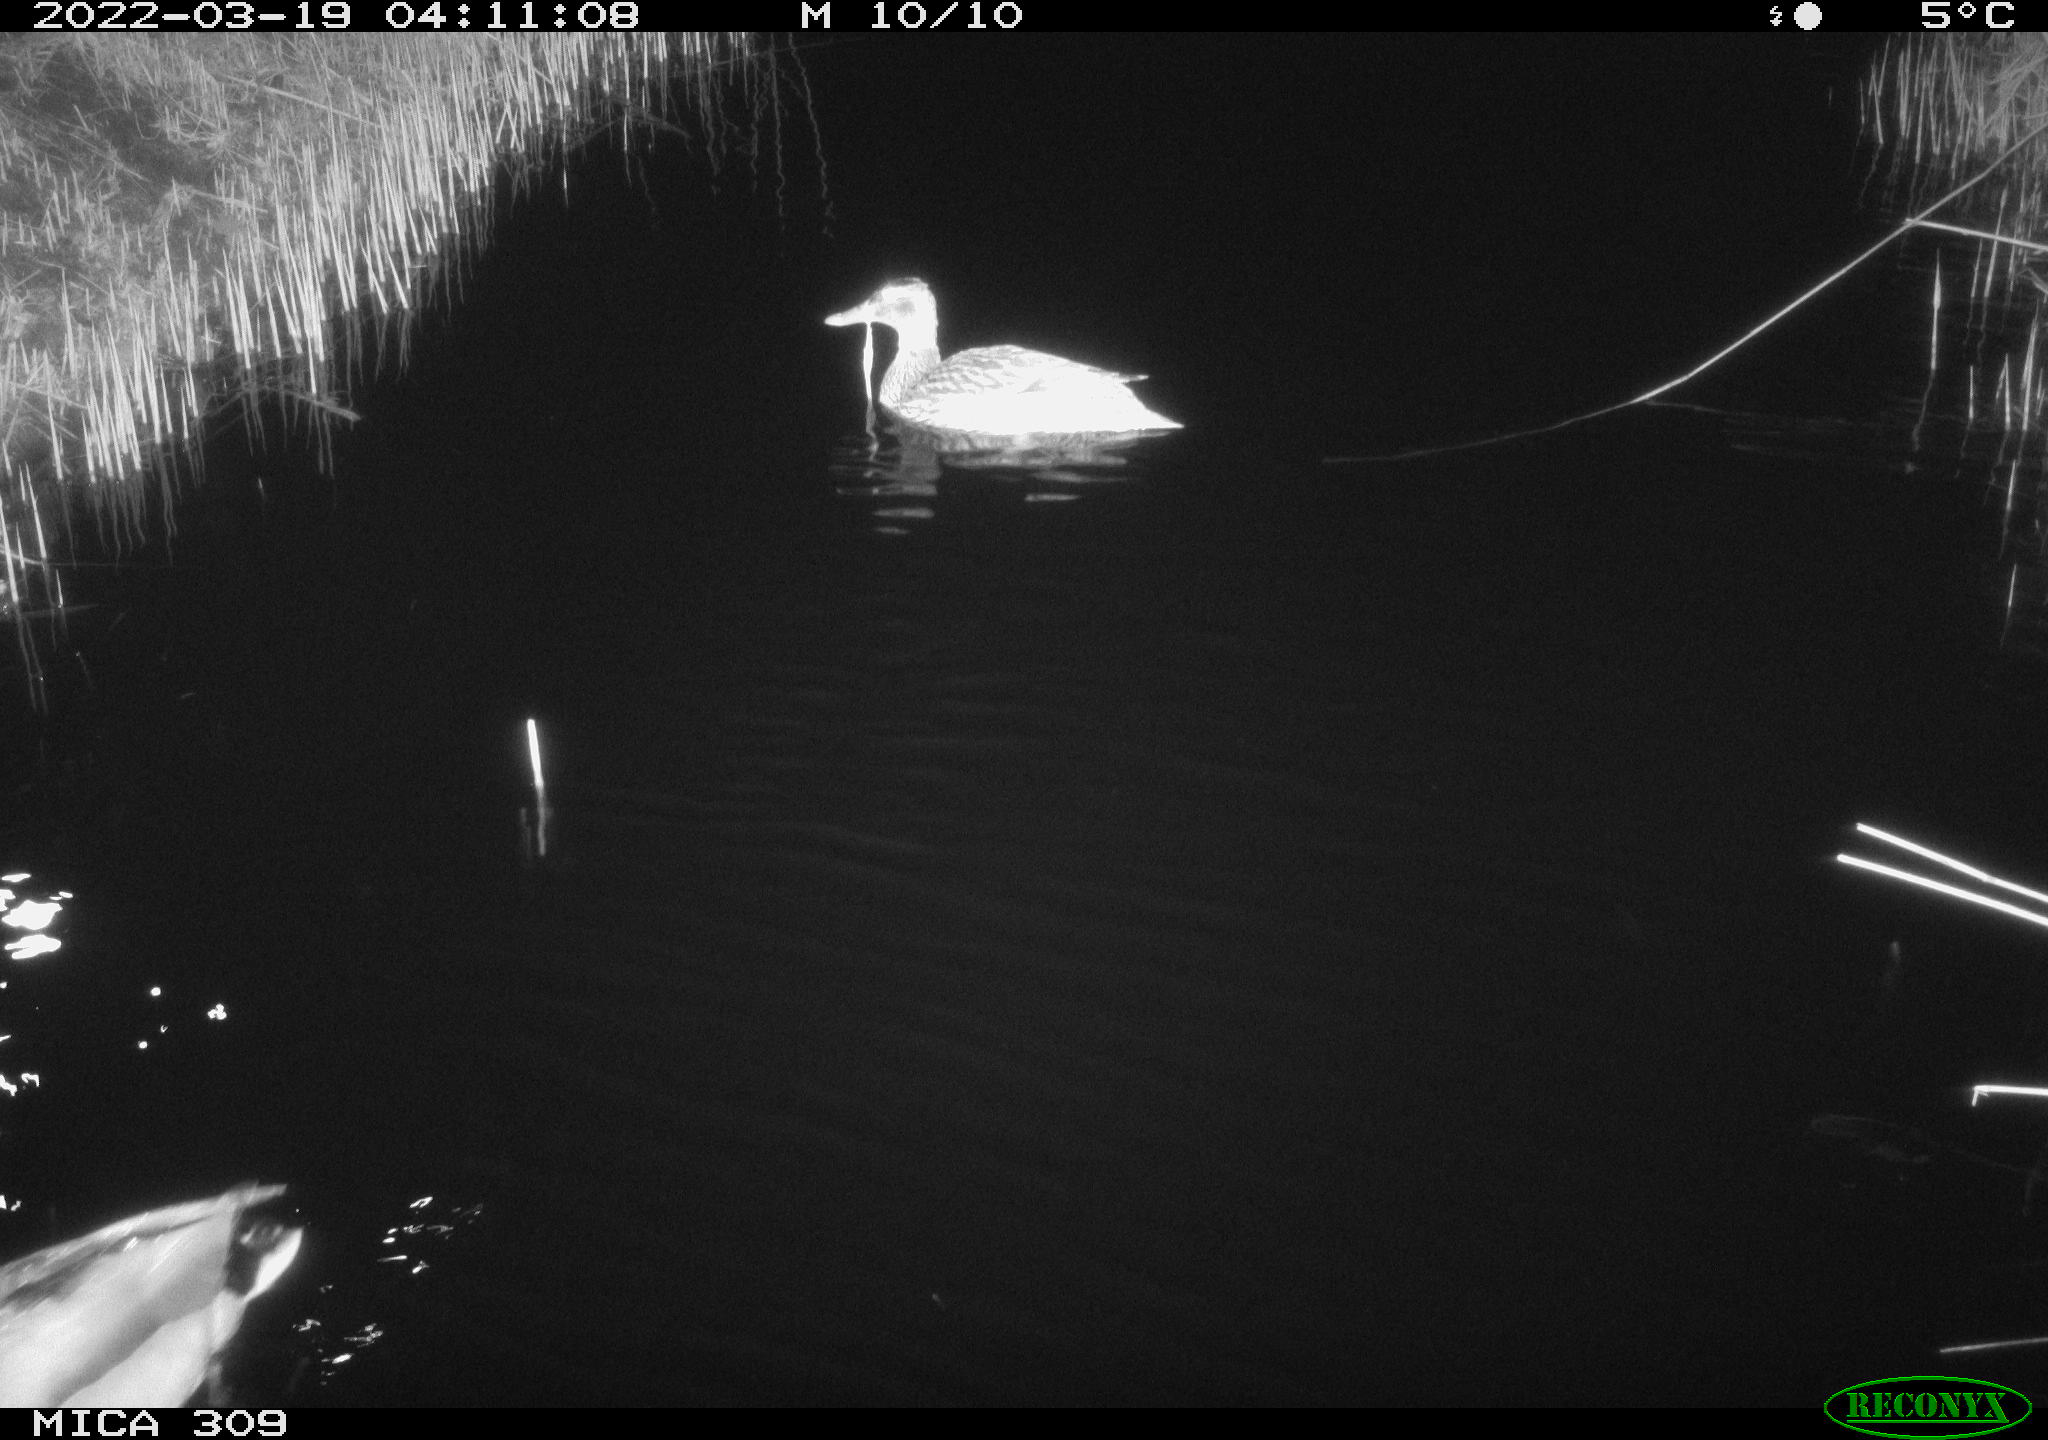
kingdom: Animalia
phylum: Chordata
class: Aves
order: Anseriformes
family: Anatidae
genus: Anas
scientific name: Anas platyrhynchos
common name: Mallard
